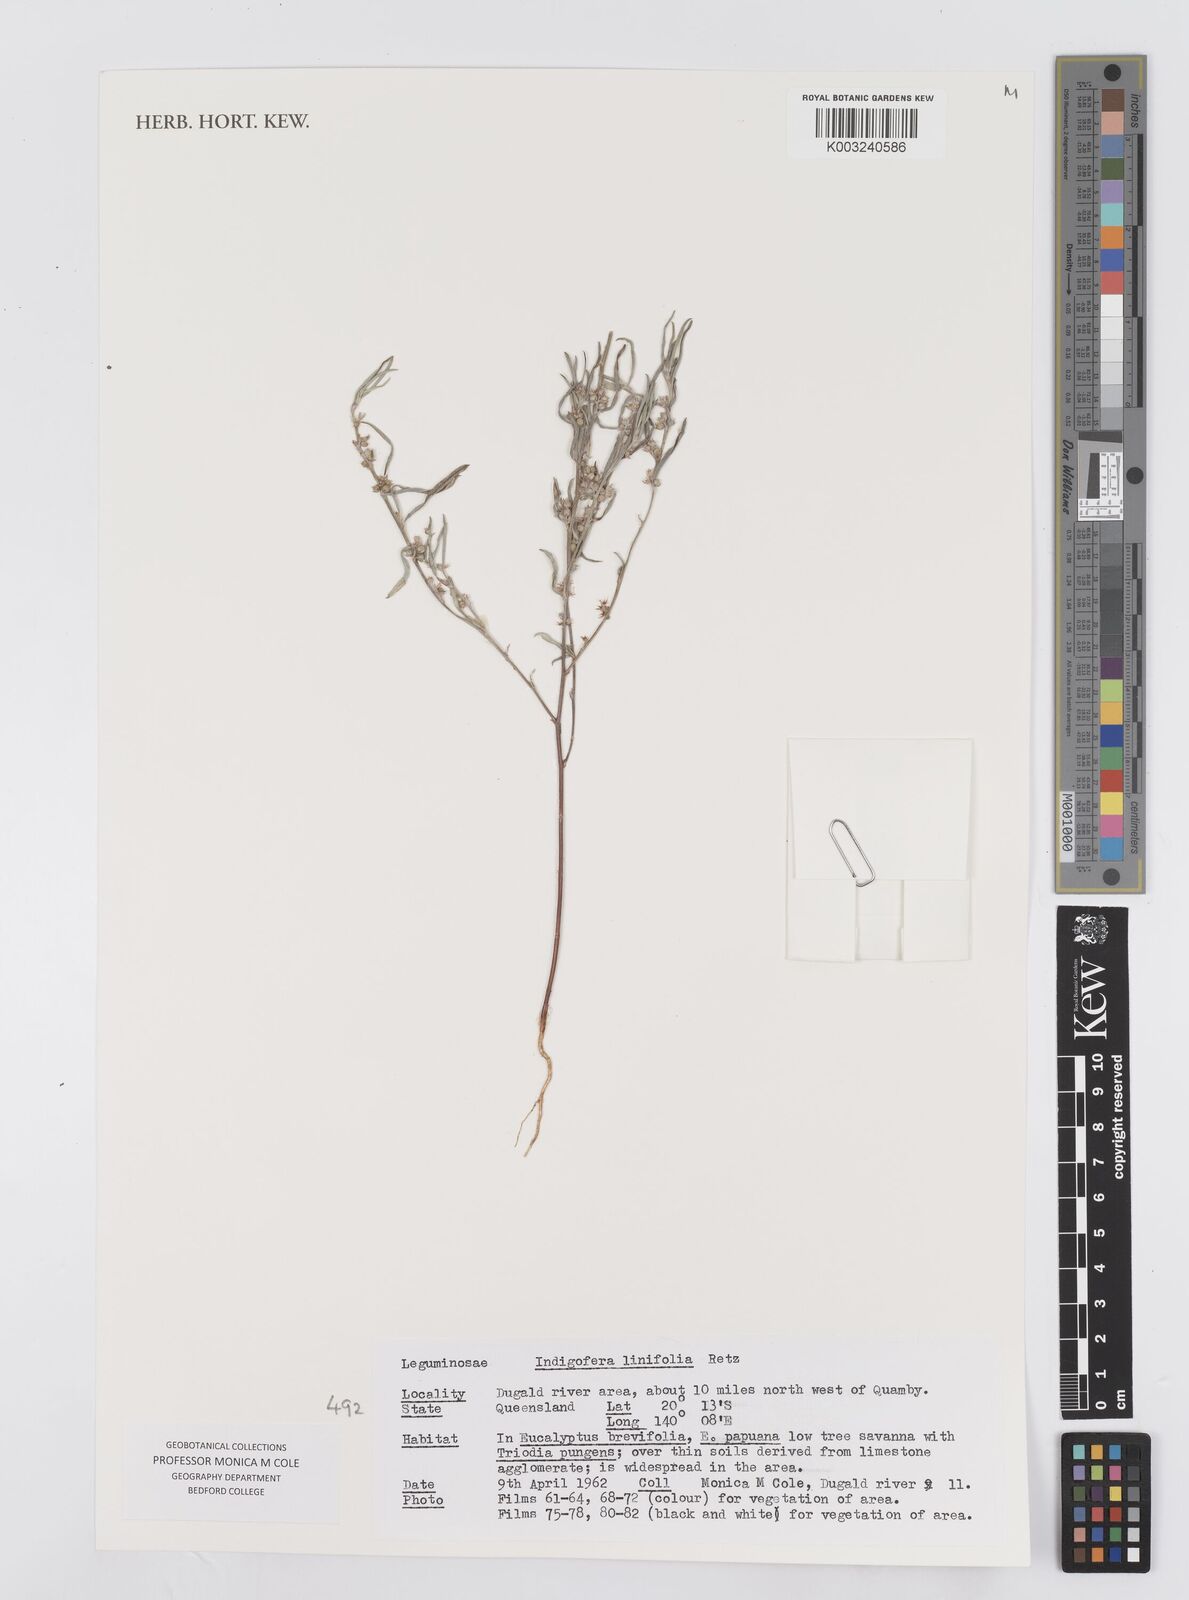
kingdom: Plantae
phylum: Tracheophyta
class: Magnoliopsida
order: Fabales
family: Fabaceae
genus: Indigofera
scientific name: Indigofera linifolia
